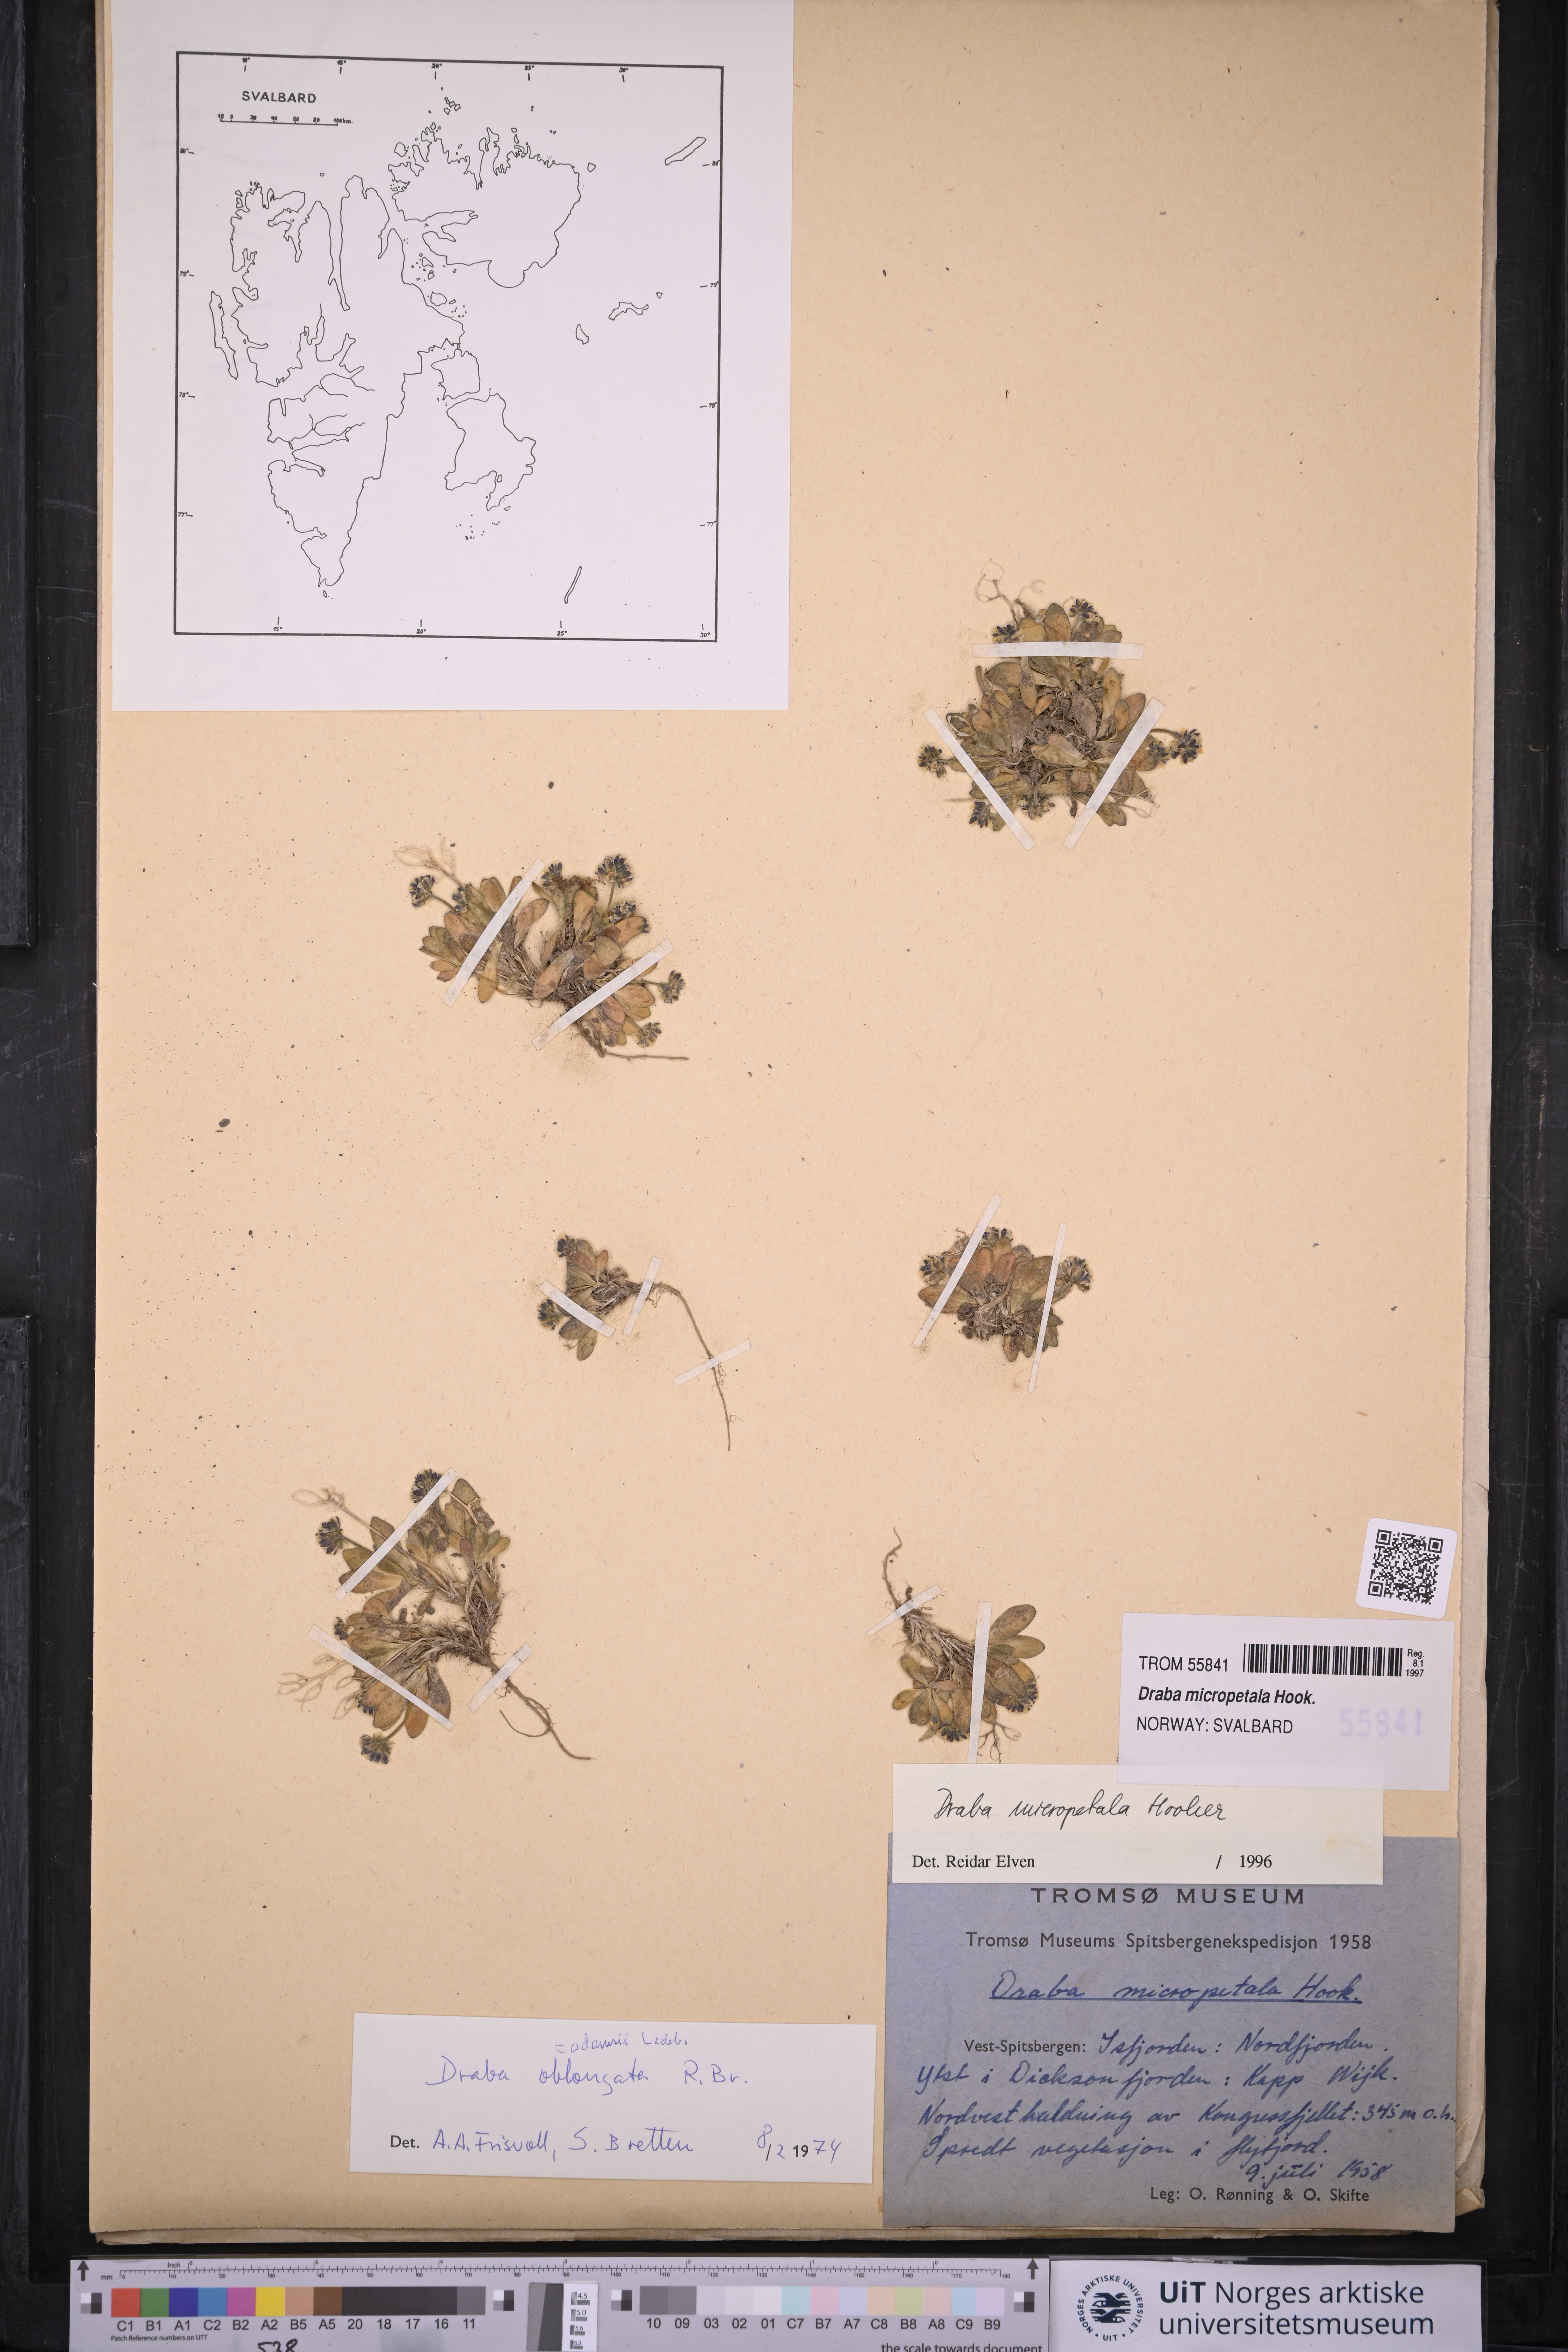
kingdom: Plantae
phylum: Tracheophyta
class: Magnoliopsida
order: Brassicales
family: Brassicaceae
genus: Draba
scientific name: Draba micropetala
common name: Small-flowered draba
